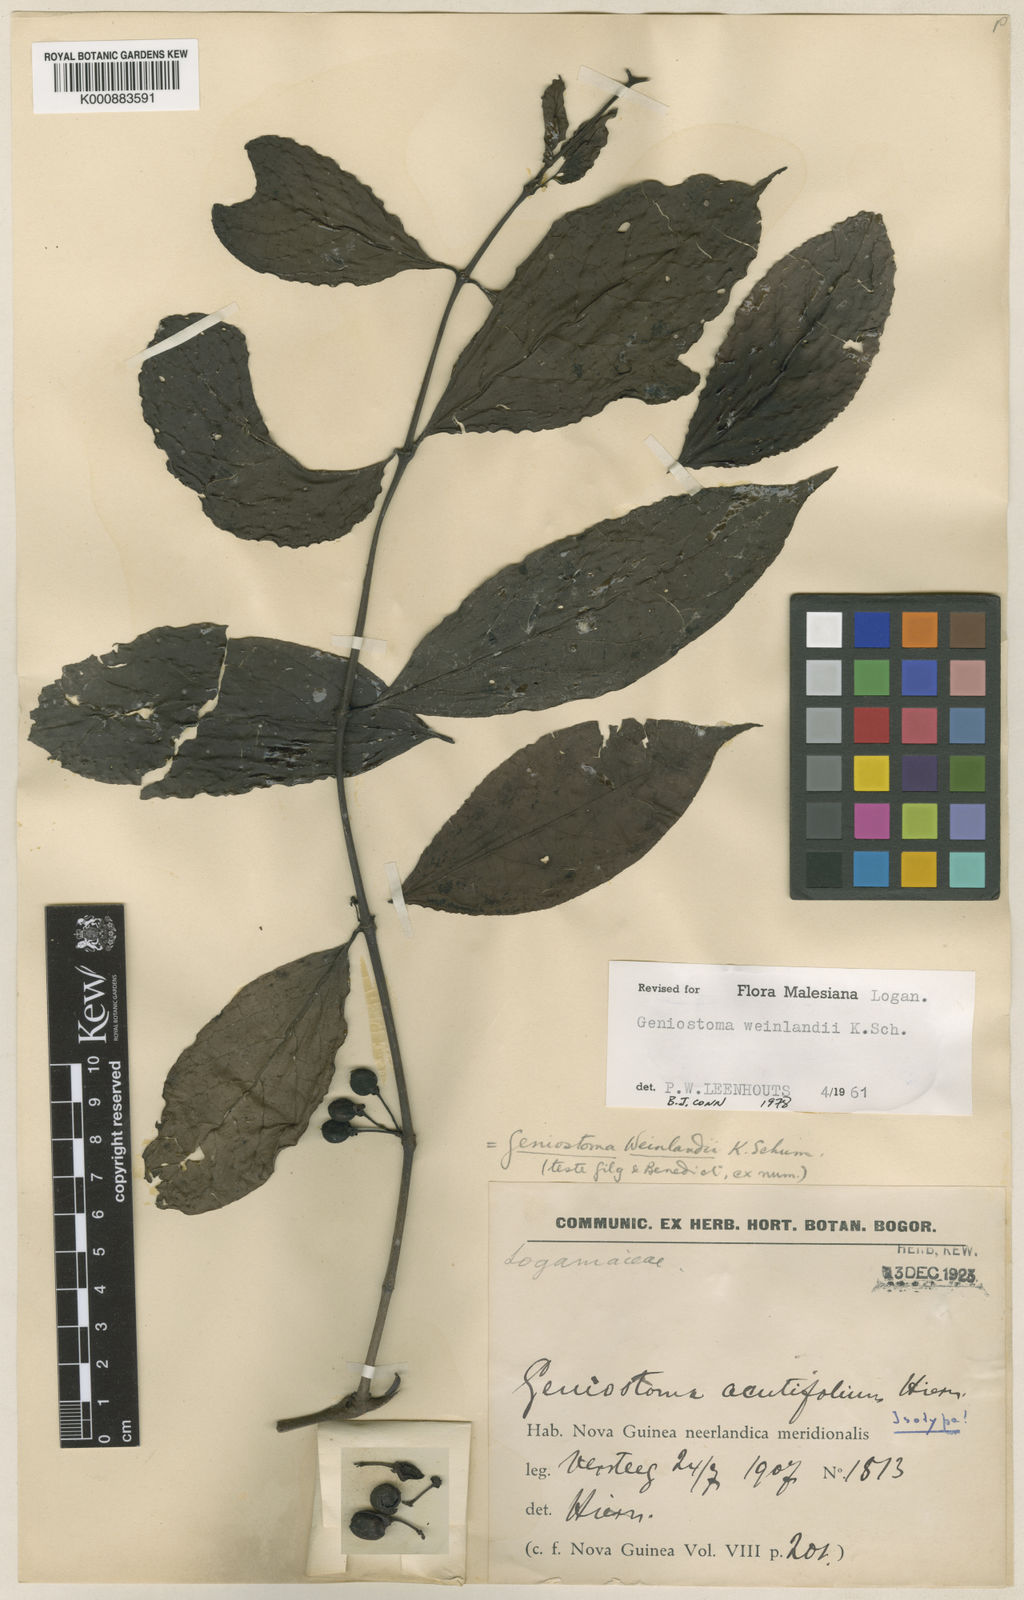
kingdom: Plantae
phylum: Tracheophyta
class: Magnoliopsida
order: Gentianales
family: Loganiaceae
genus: Geniostoma
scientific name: Geniostoma weinlandii
